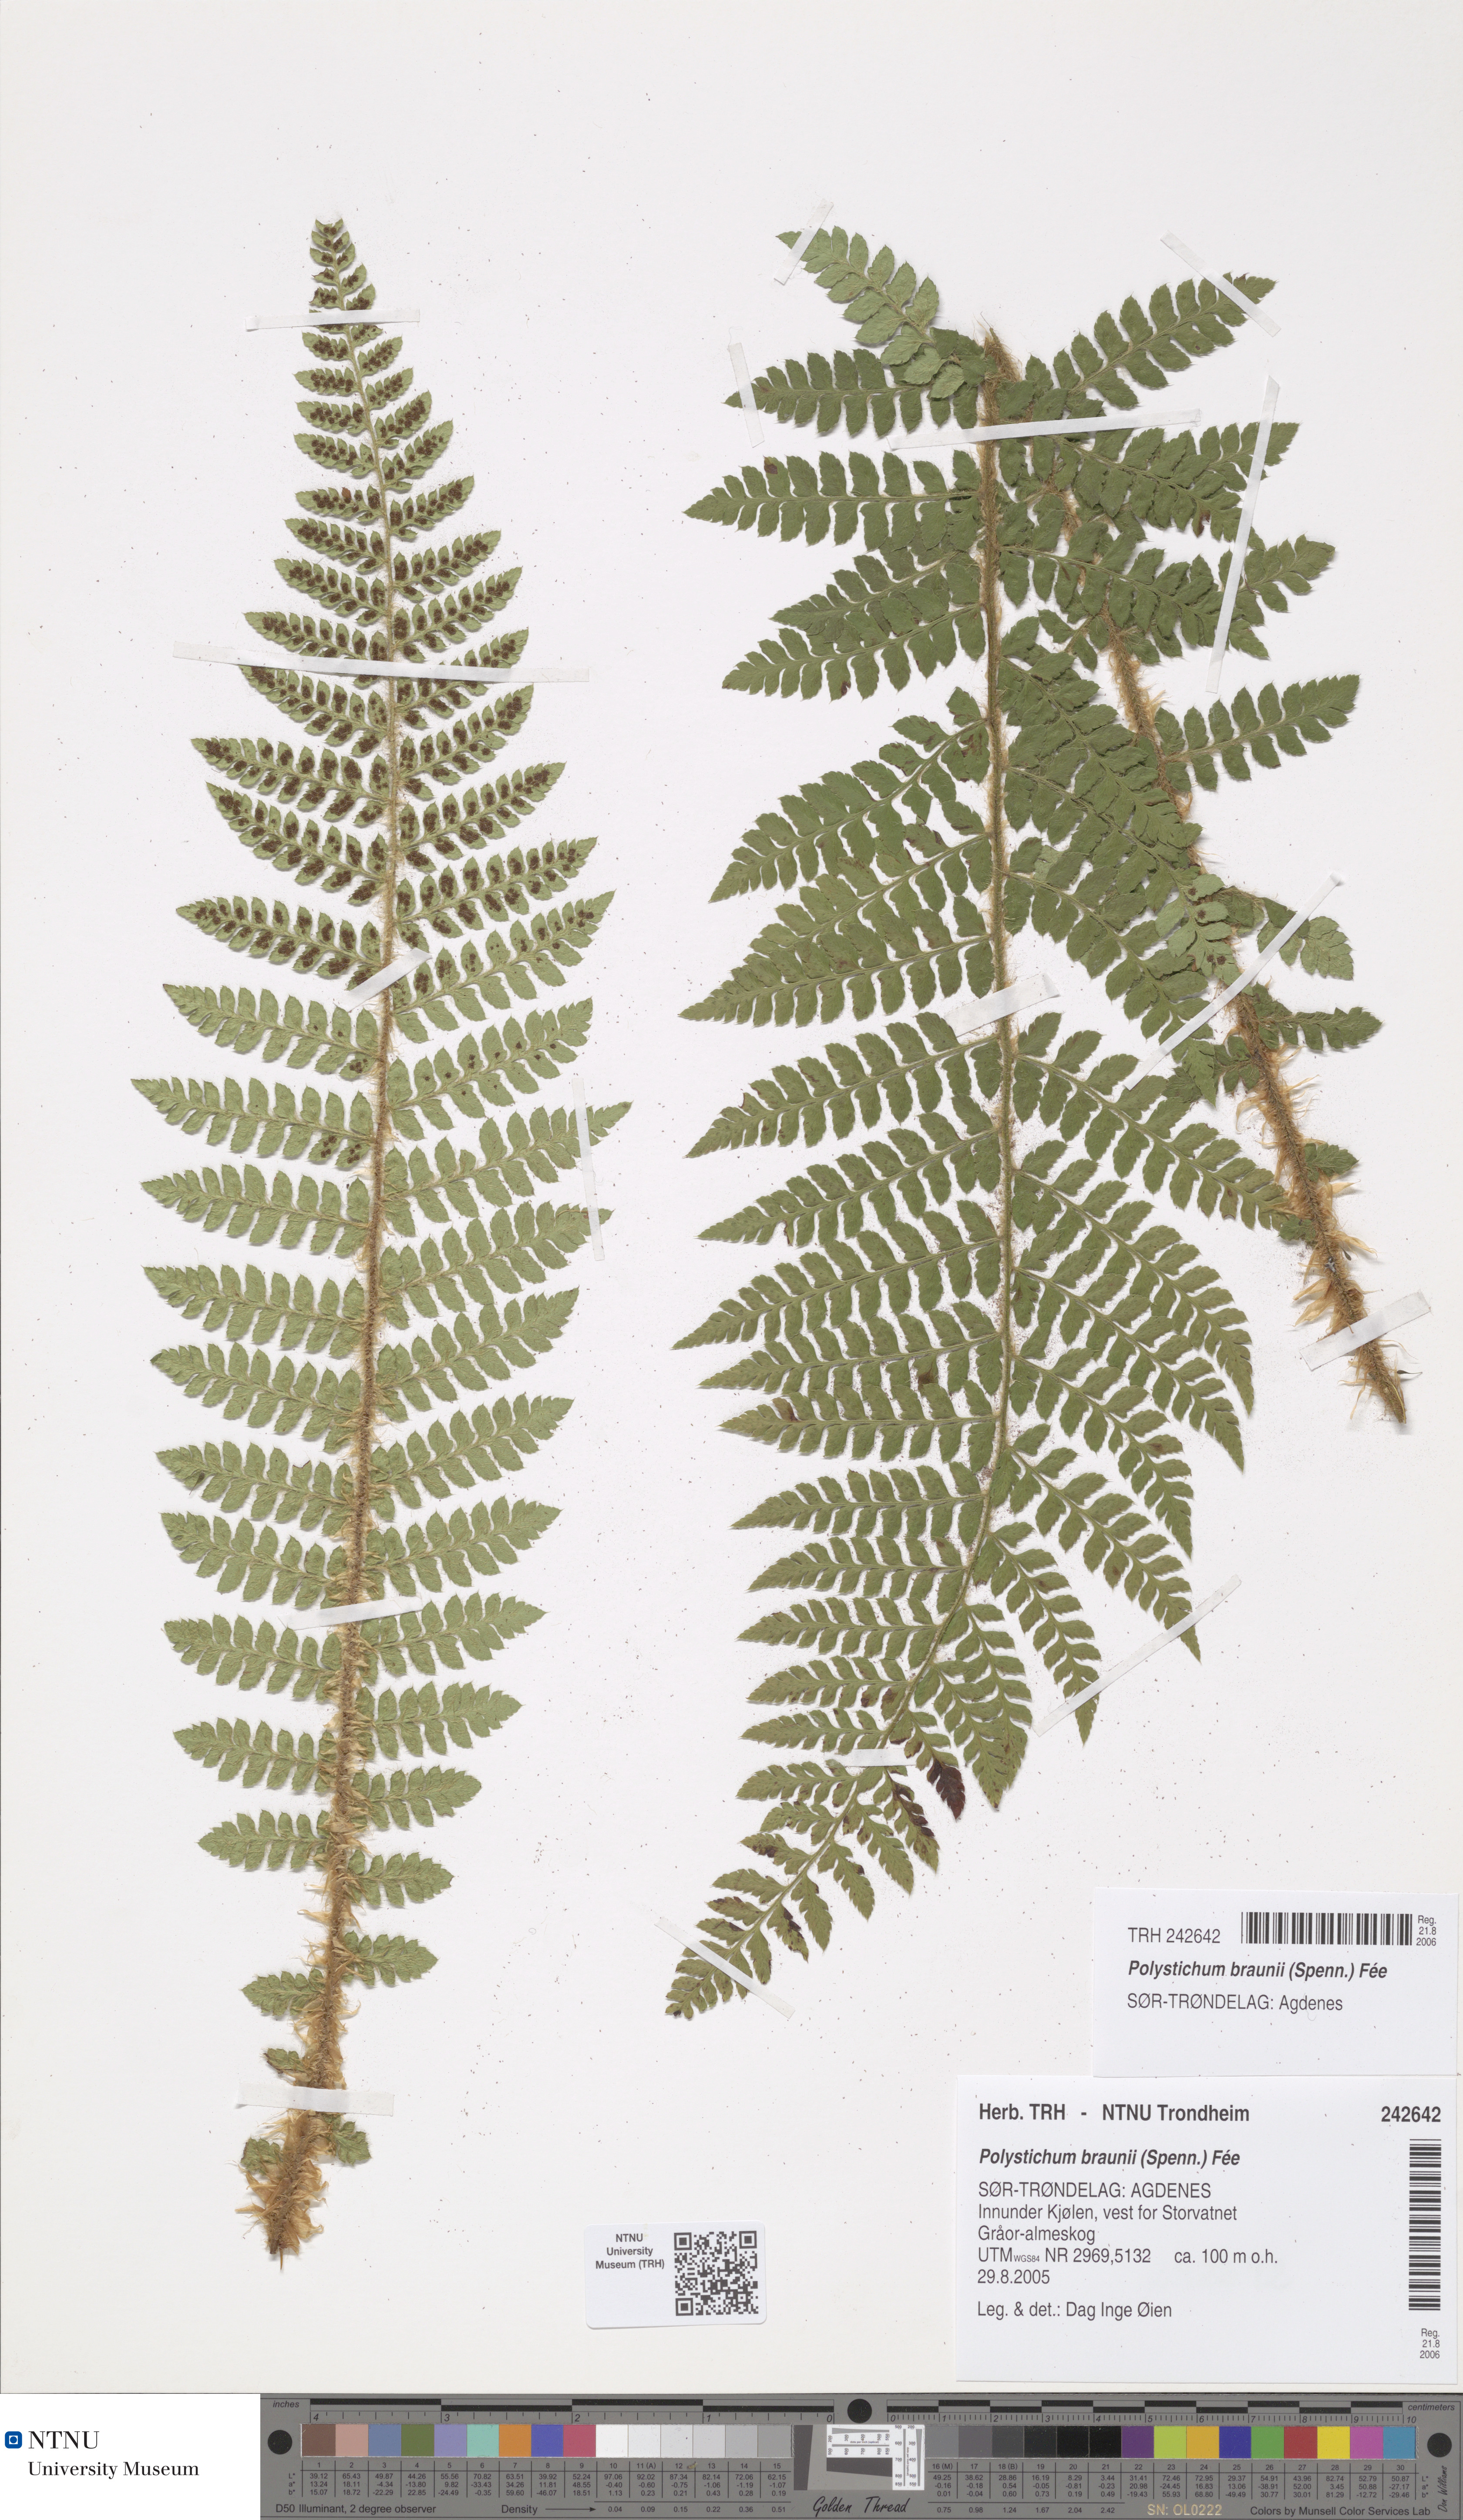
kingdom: Plantae
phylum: Tracheophyta
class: Polypodiopsida
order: Polypodiales
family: Dryopteridaceae
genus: Polystichum
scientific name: Polystichum braunii
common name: Braun's holly fern
